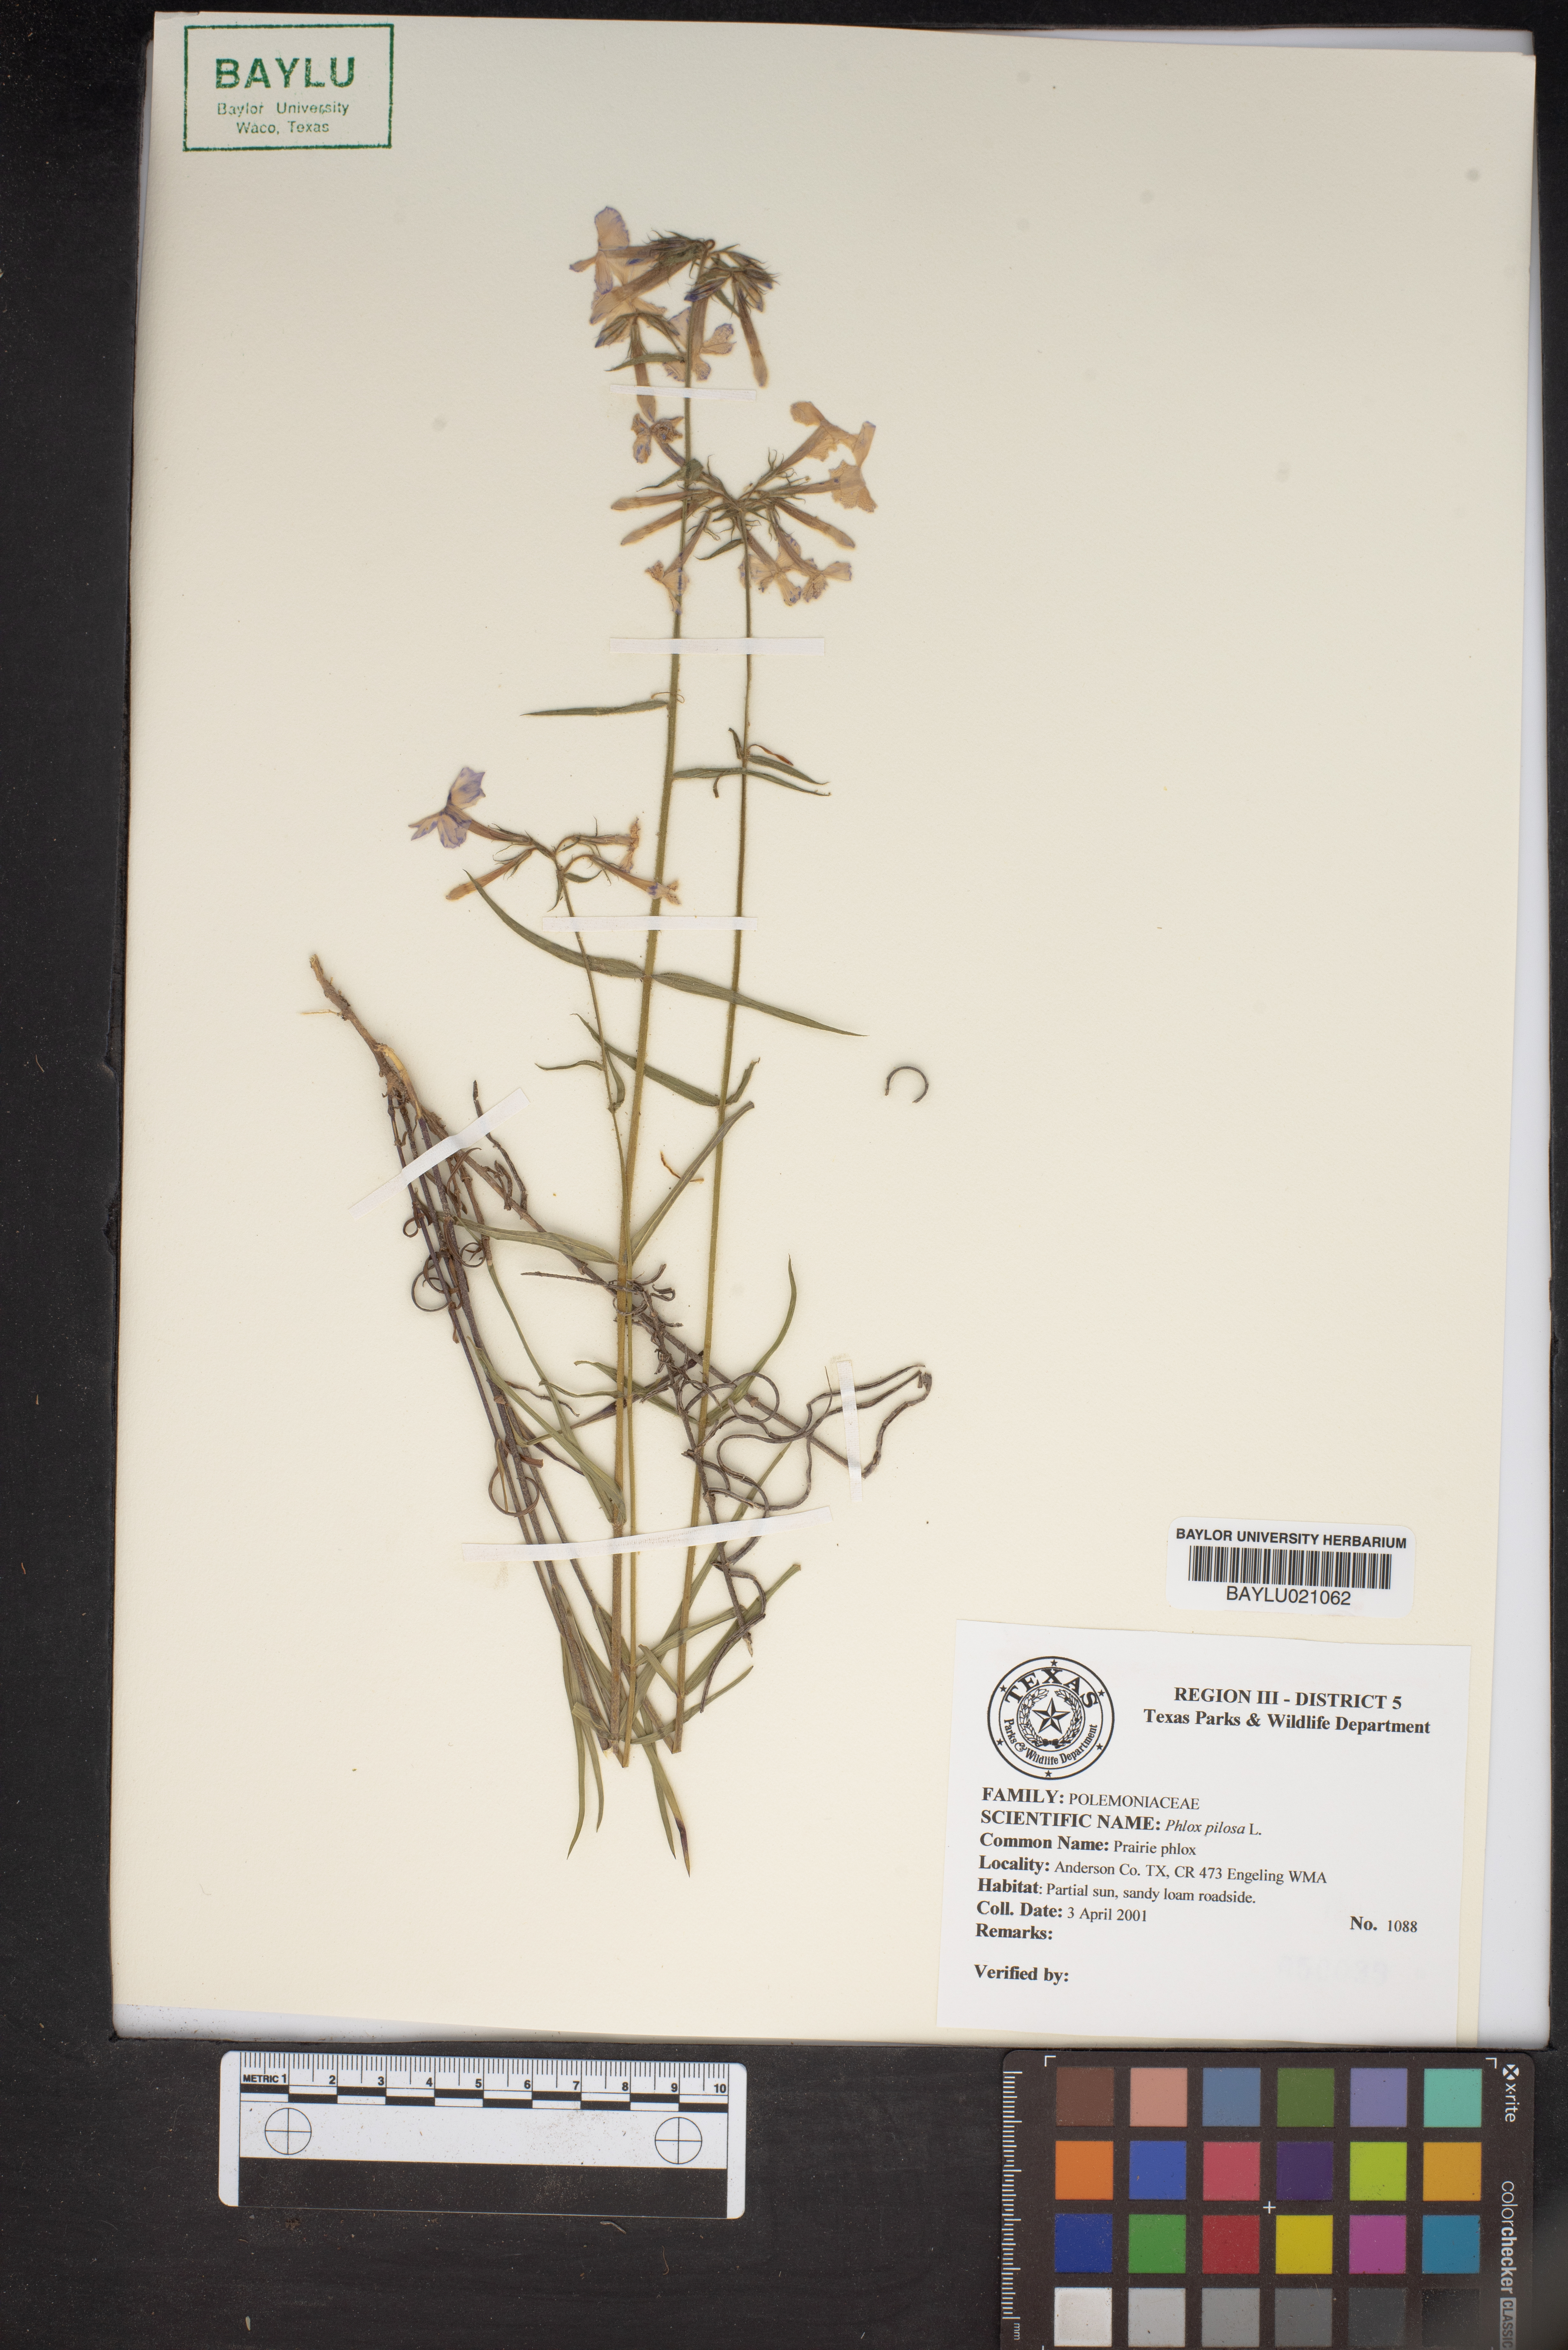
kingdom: Plantae
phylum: Tracheophyta
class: Magnoliopsida
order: Ericales
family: Polemoniaceae
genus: Phlox
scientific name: Phlox pilosa
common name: Prairie phlox
